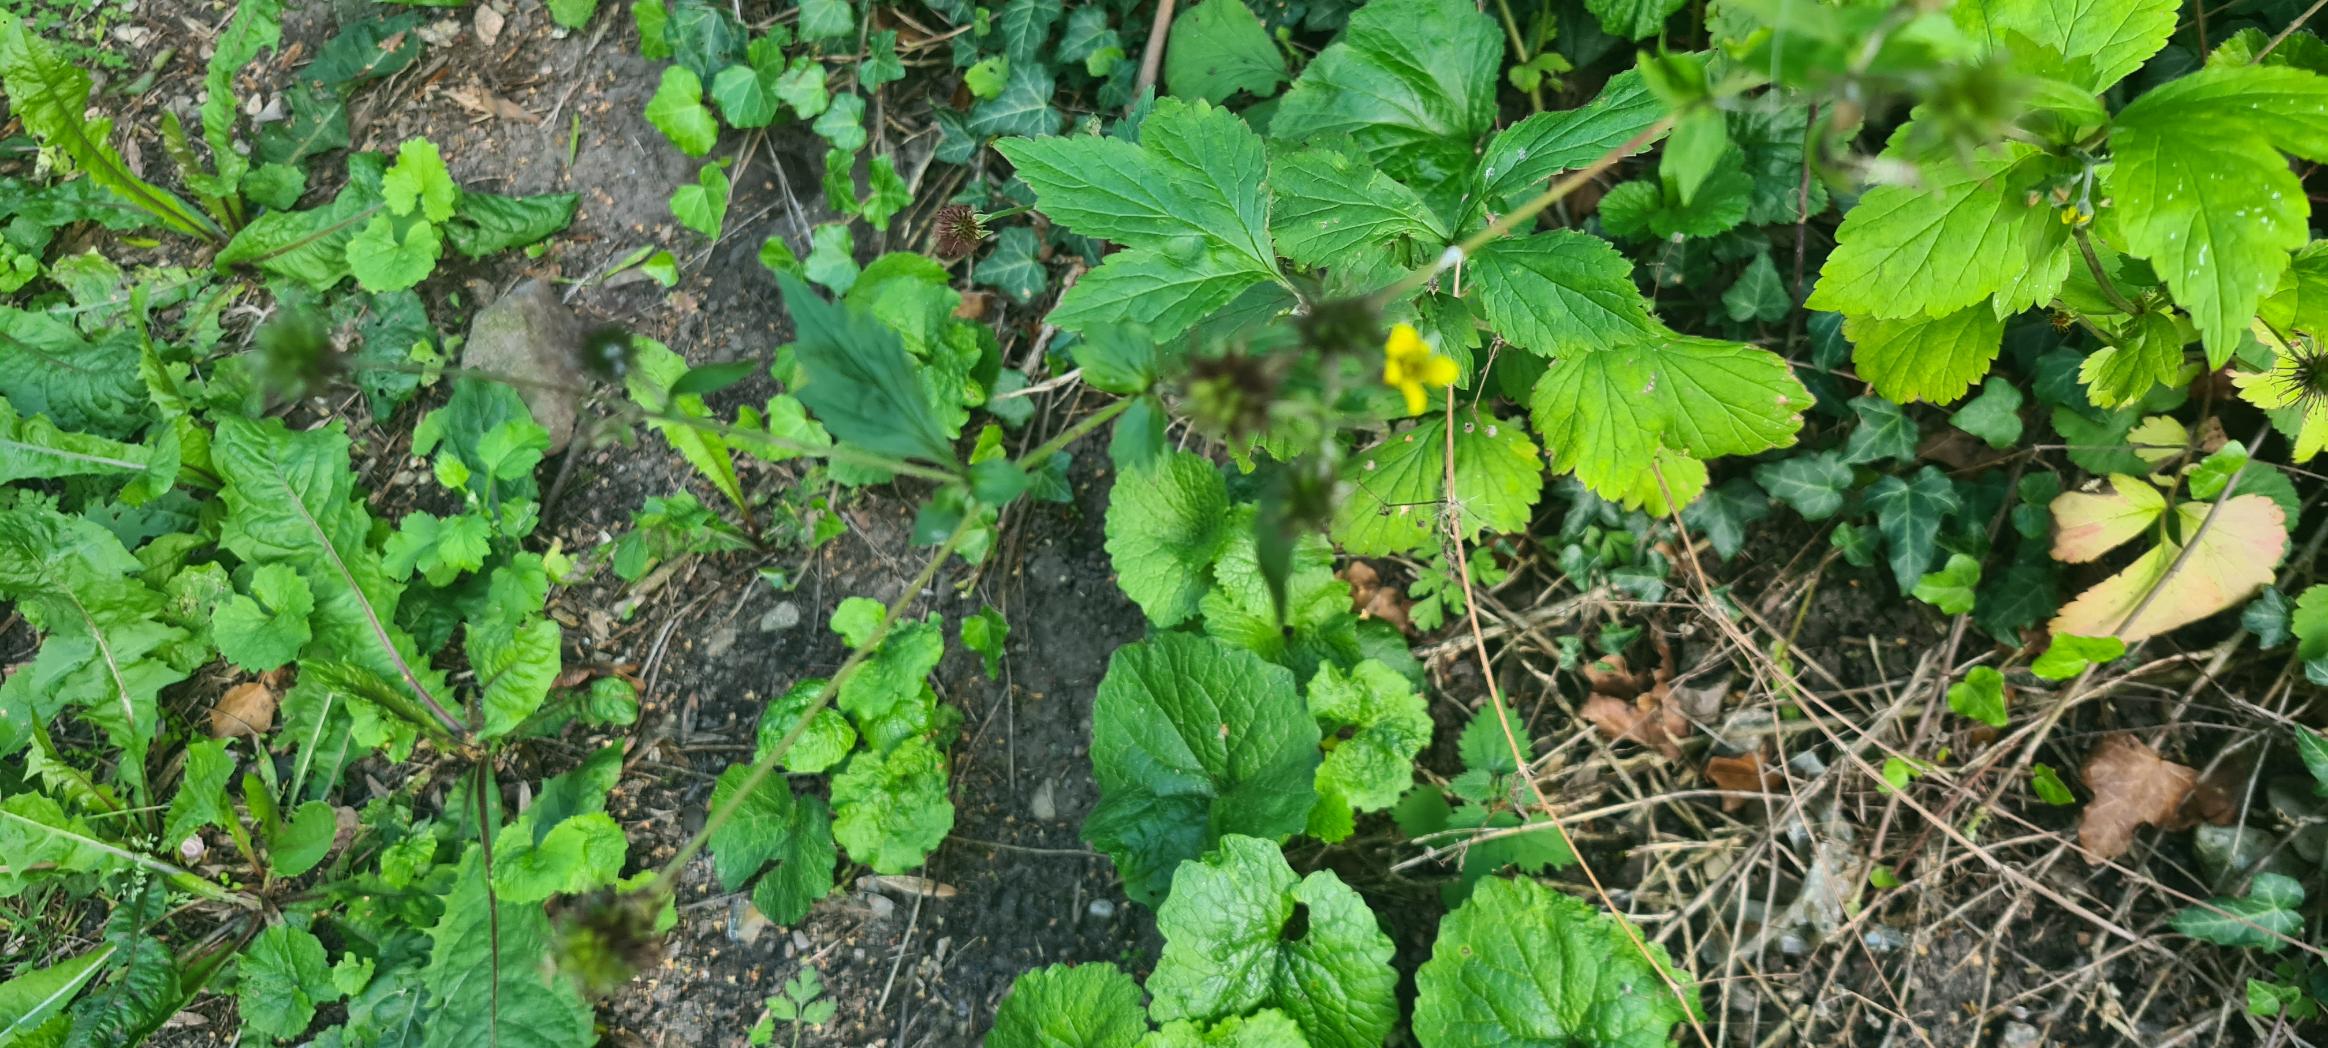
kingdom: Plantae
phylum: Tracheophyta
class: Magnoliopsida
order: Rosales
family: Rosaceae
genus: Geum
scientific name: Geum urbanum
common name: Feber-nellikerod
